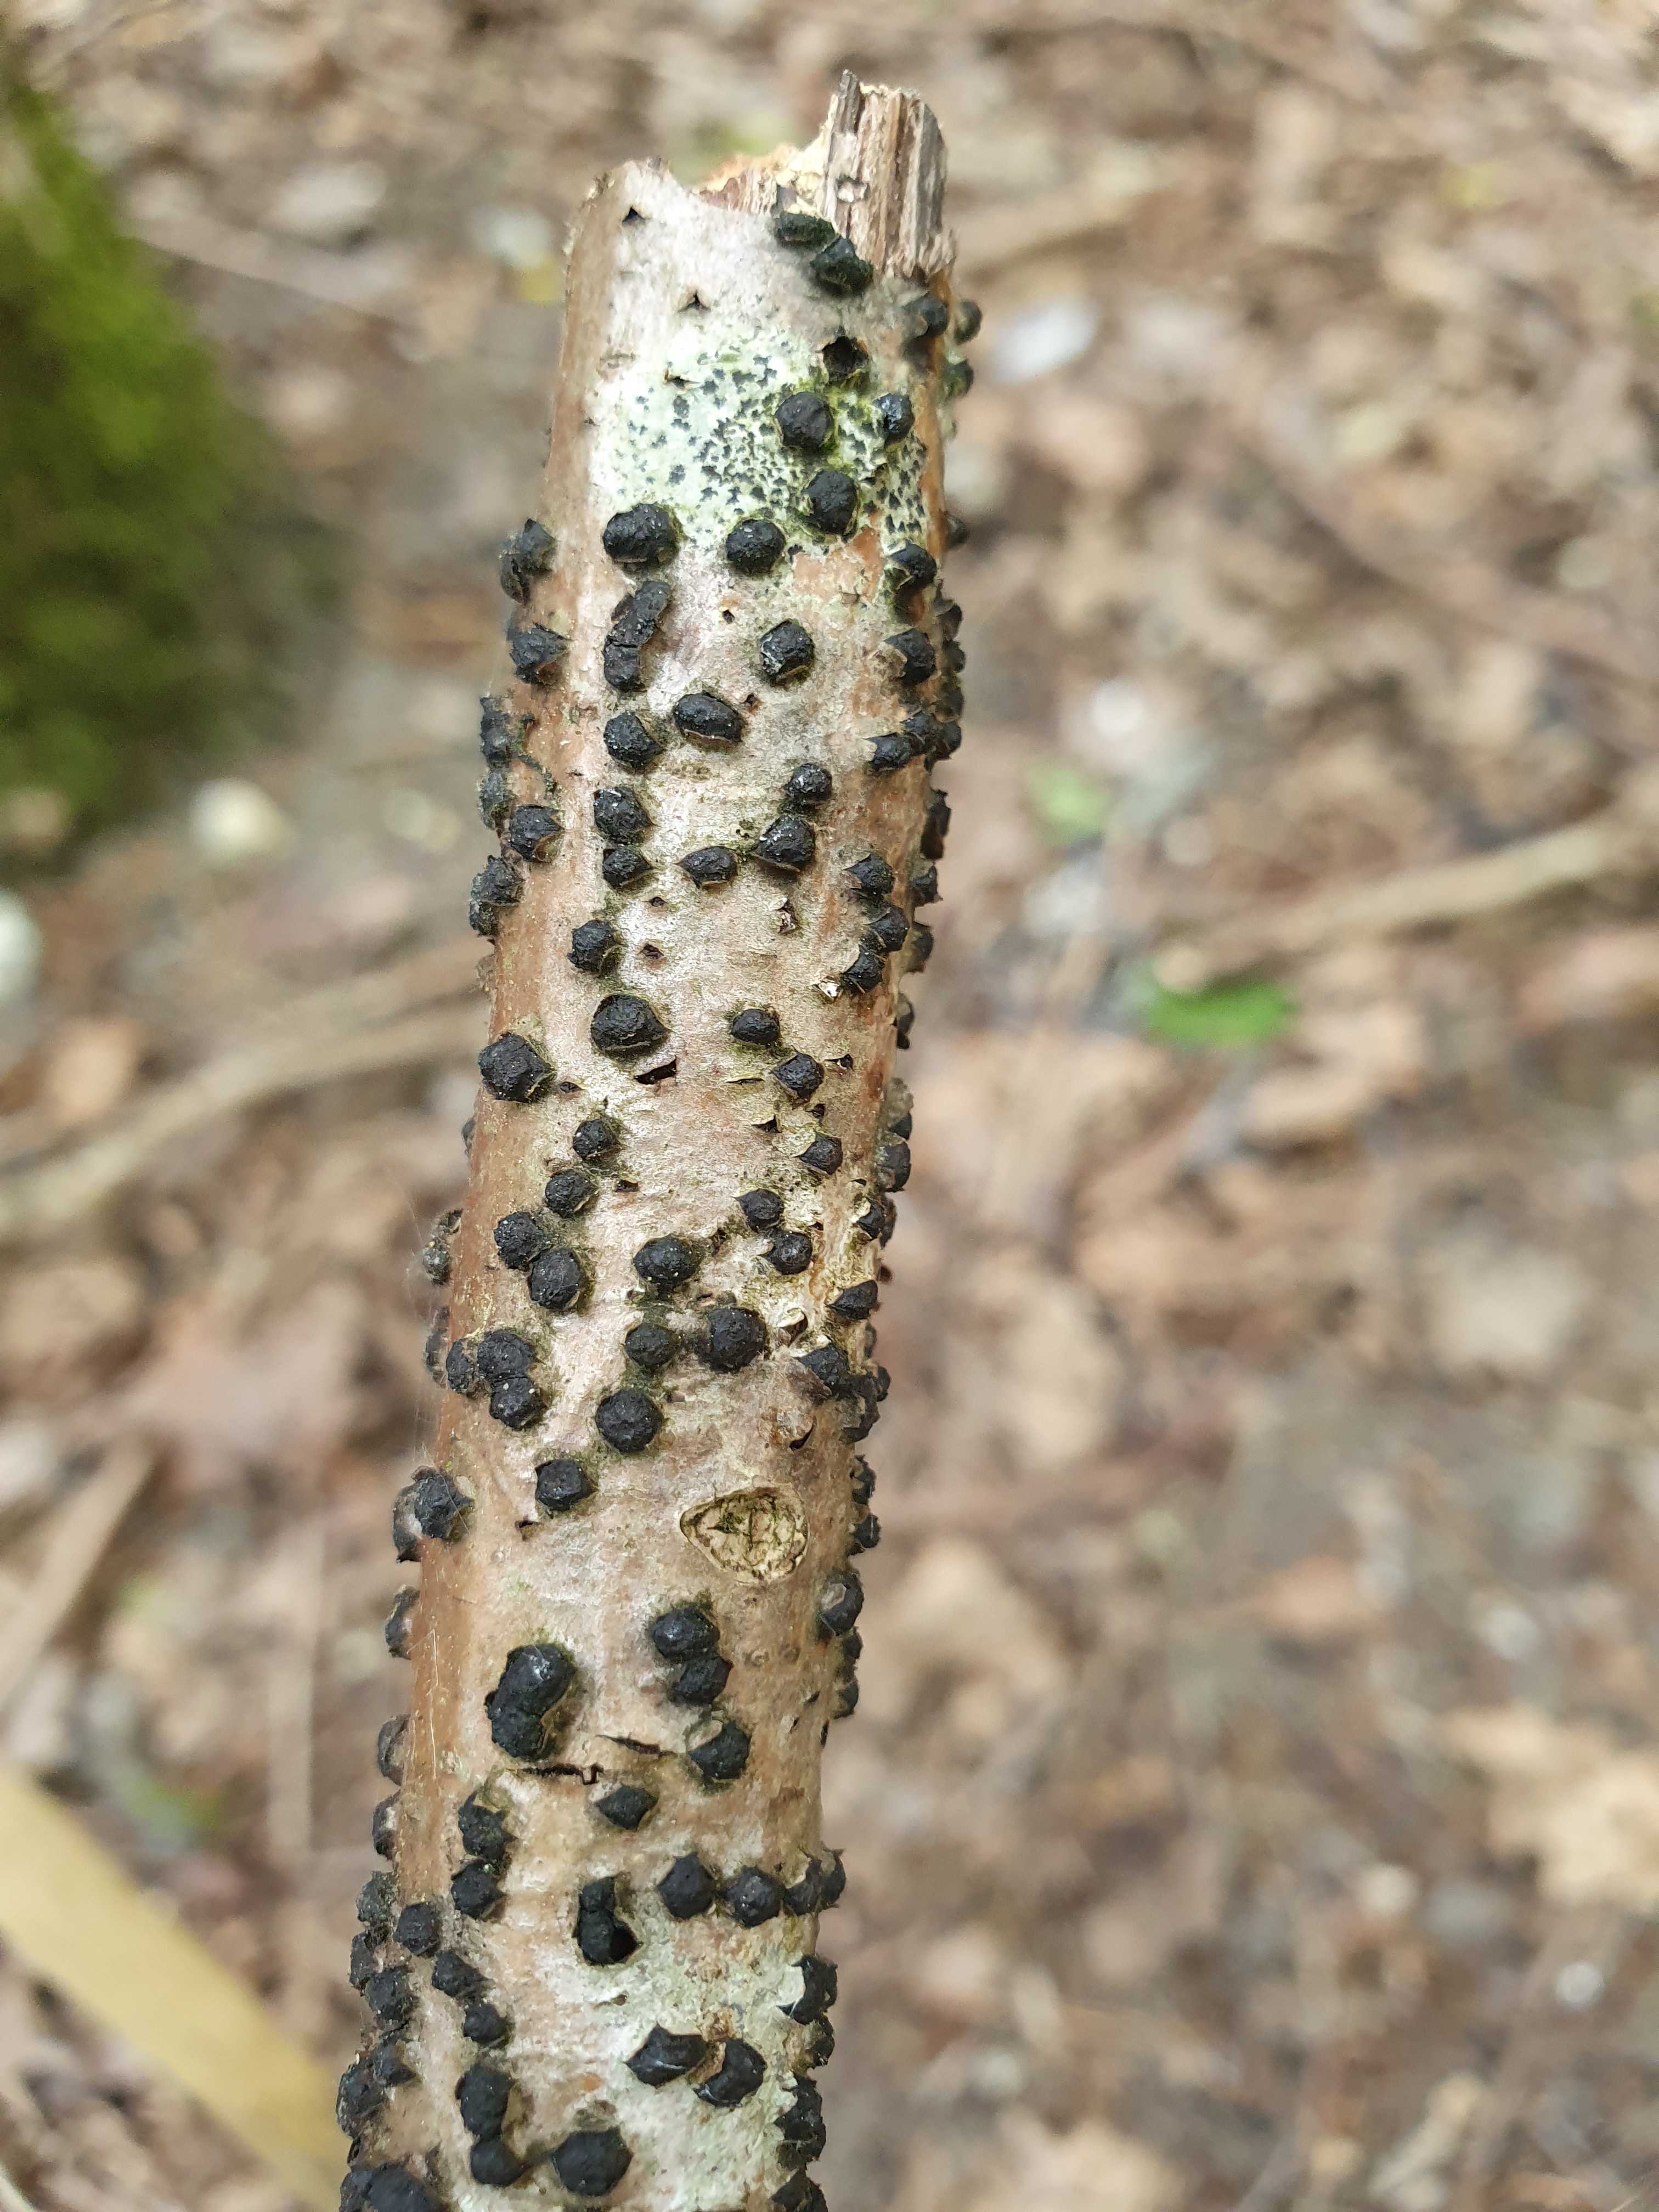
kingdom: Fungi
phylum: Ascomycota
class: Sordariomycetes
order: Xylariales
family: Diatrypaceae
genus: Diatrypella
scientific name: Diatrypella quercina
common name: ege-kulskorpe
